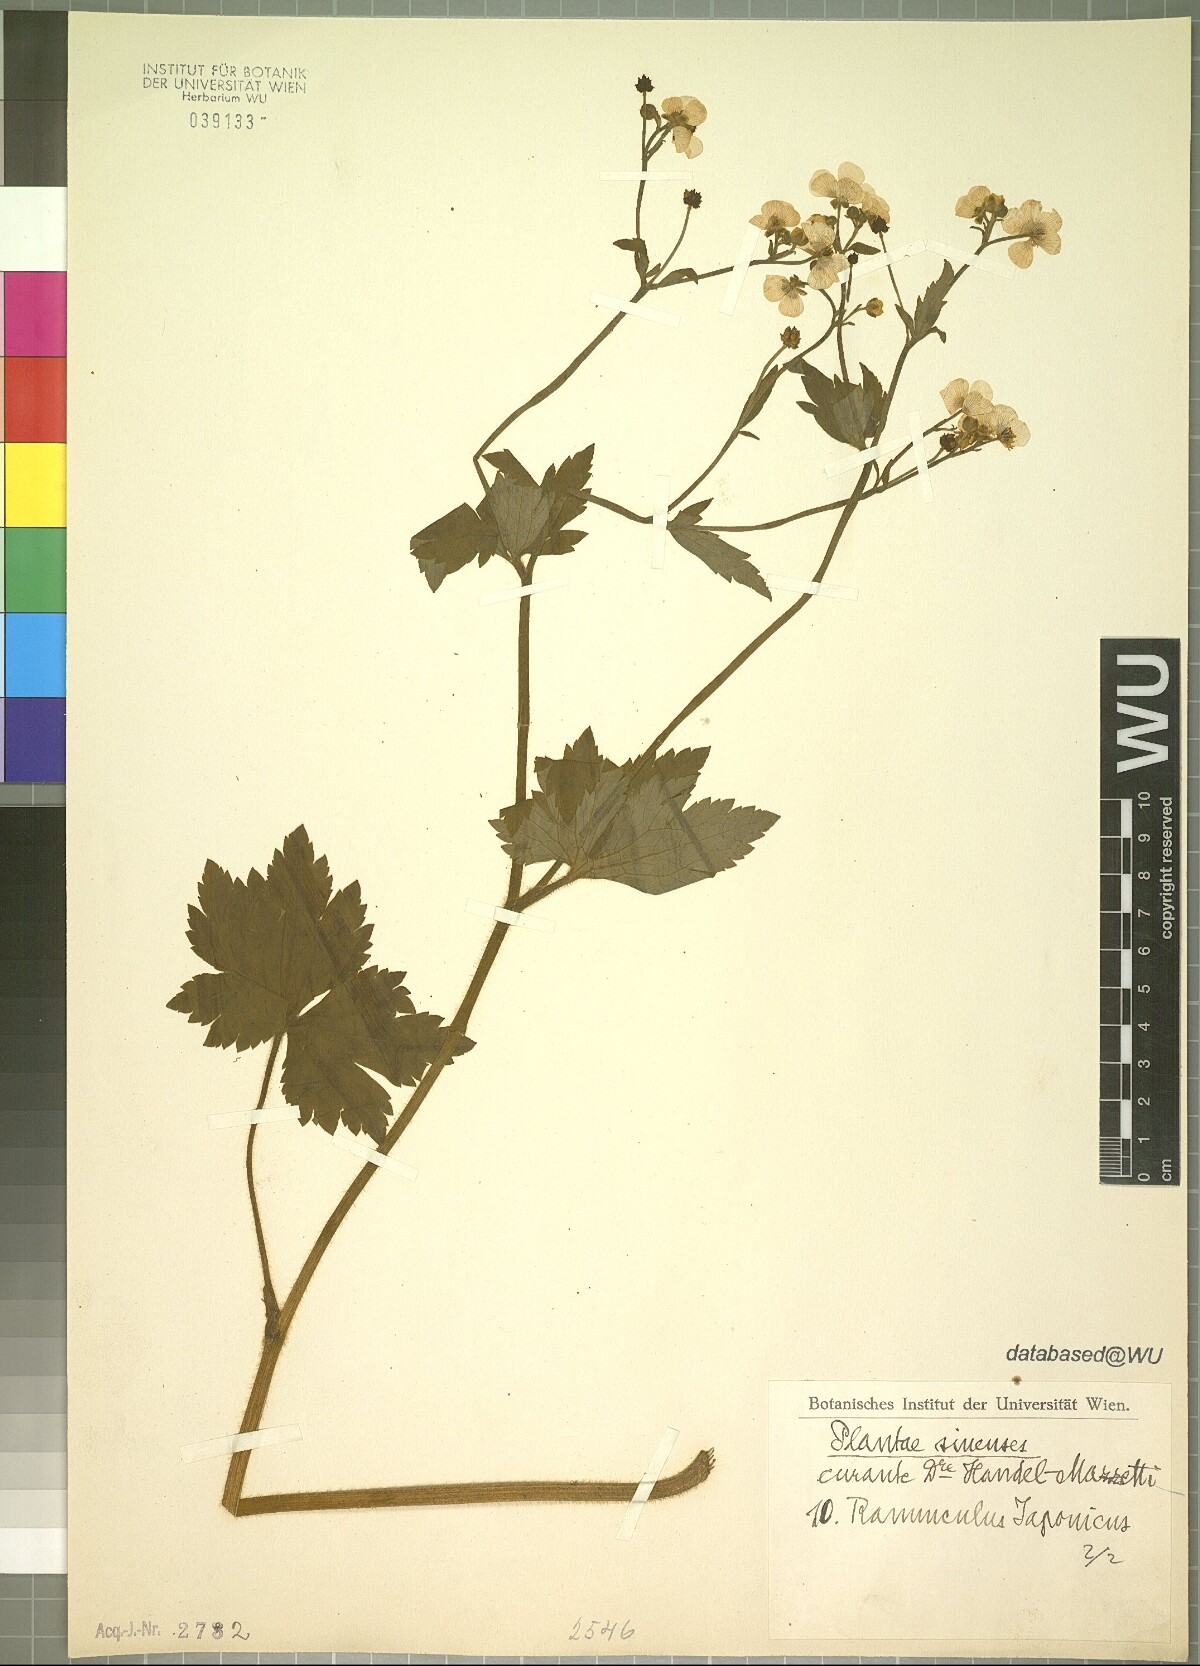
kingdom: Plantae
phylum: Tracheophyta
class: Magnoliopsida
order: Ranunculales
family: Ranunculaceae
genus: Ranunculus
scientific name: Ranunculus japonicus
